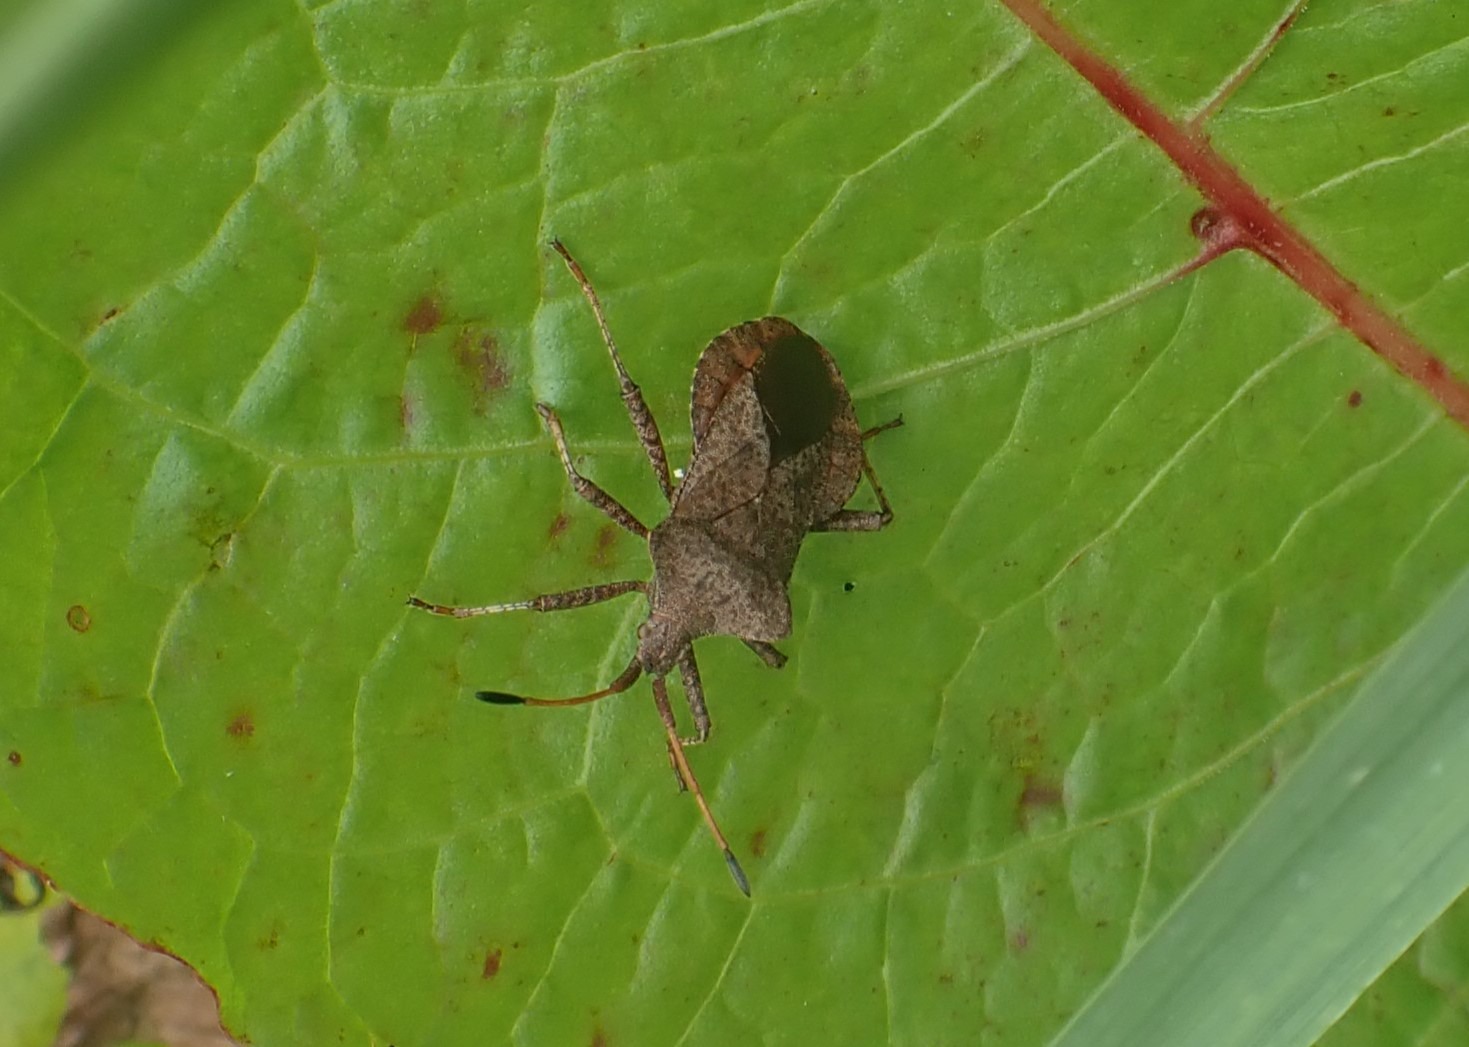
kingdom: Animalia
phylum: Arthropoda
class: Insecta
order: Hemiptera
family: Coreidae
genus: Coreus
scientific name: Coreus marginatus
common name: Skræppetæge
